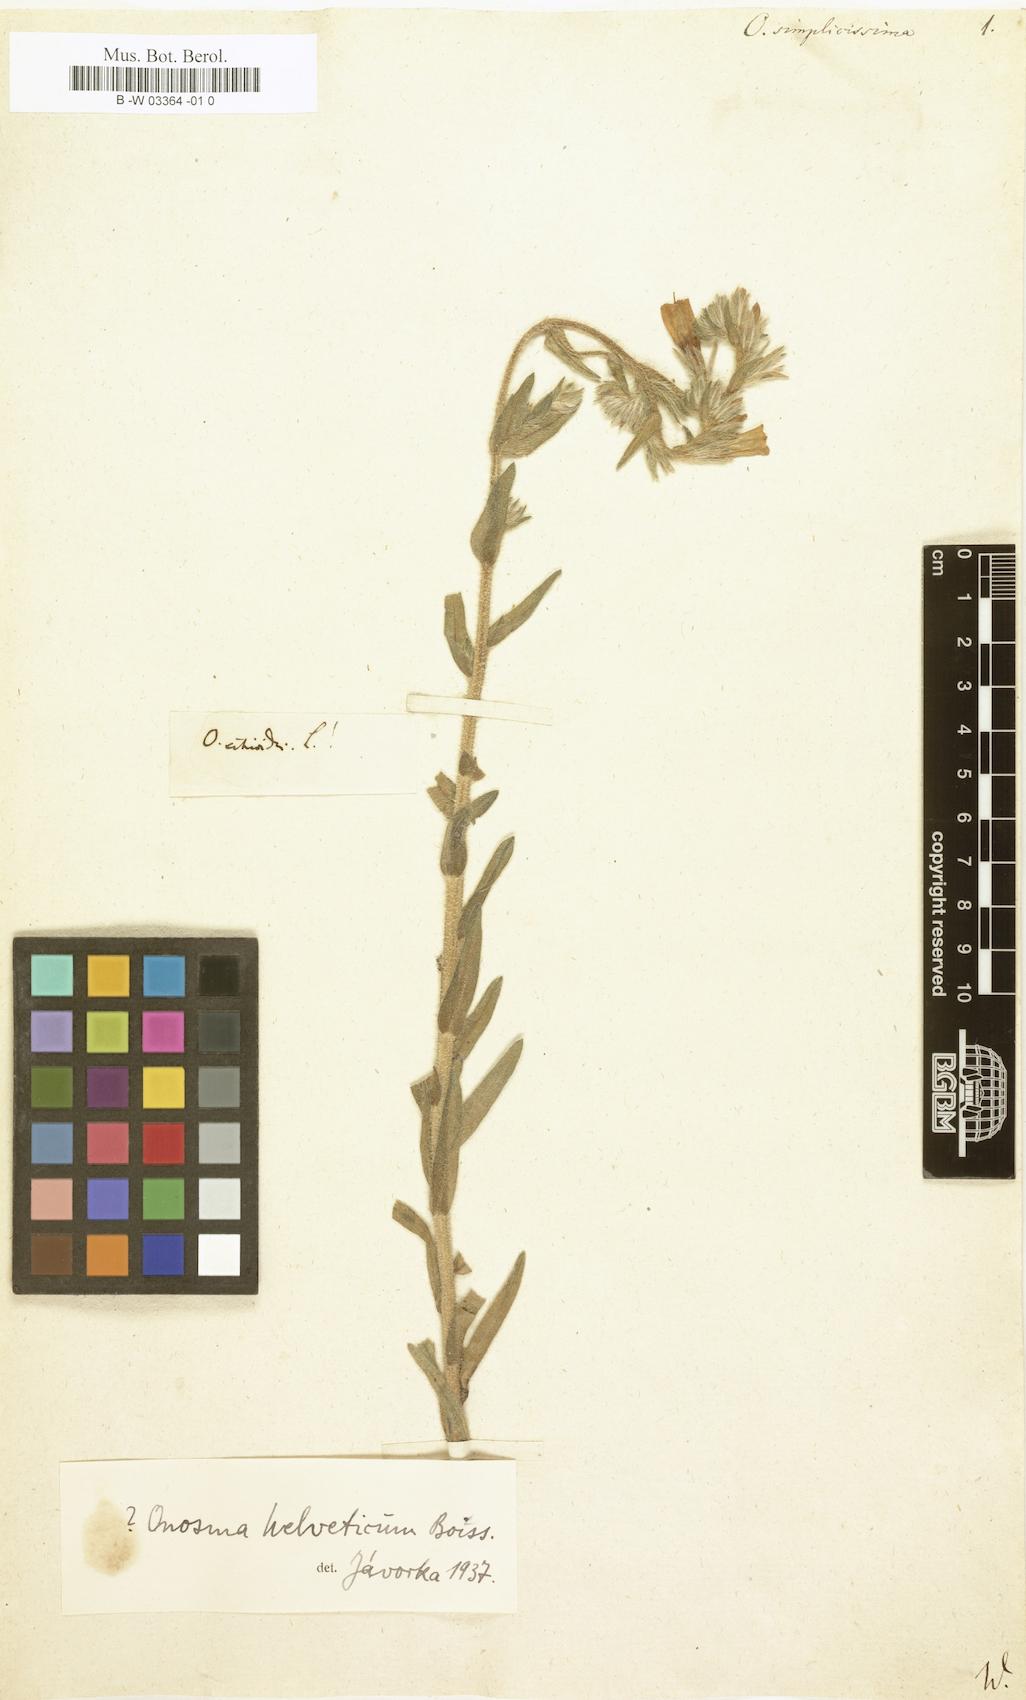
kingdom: Plantae
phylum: Tracheophyta
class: Magnoliopsida
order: Boraginales
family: Boraginaceae
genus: Onosma
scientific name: Onosma simplicissima
